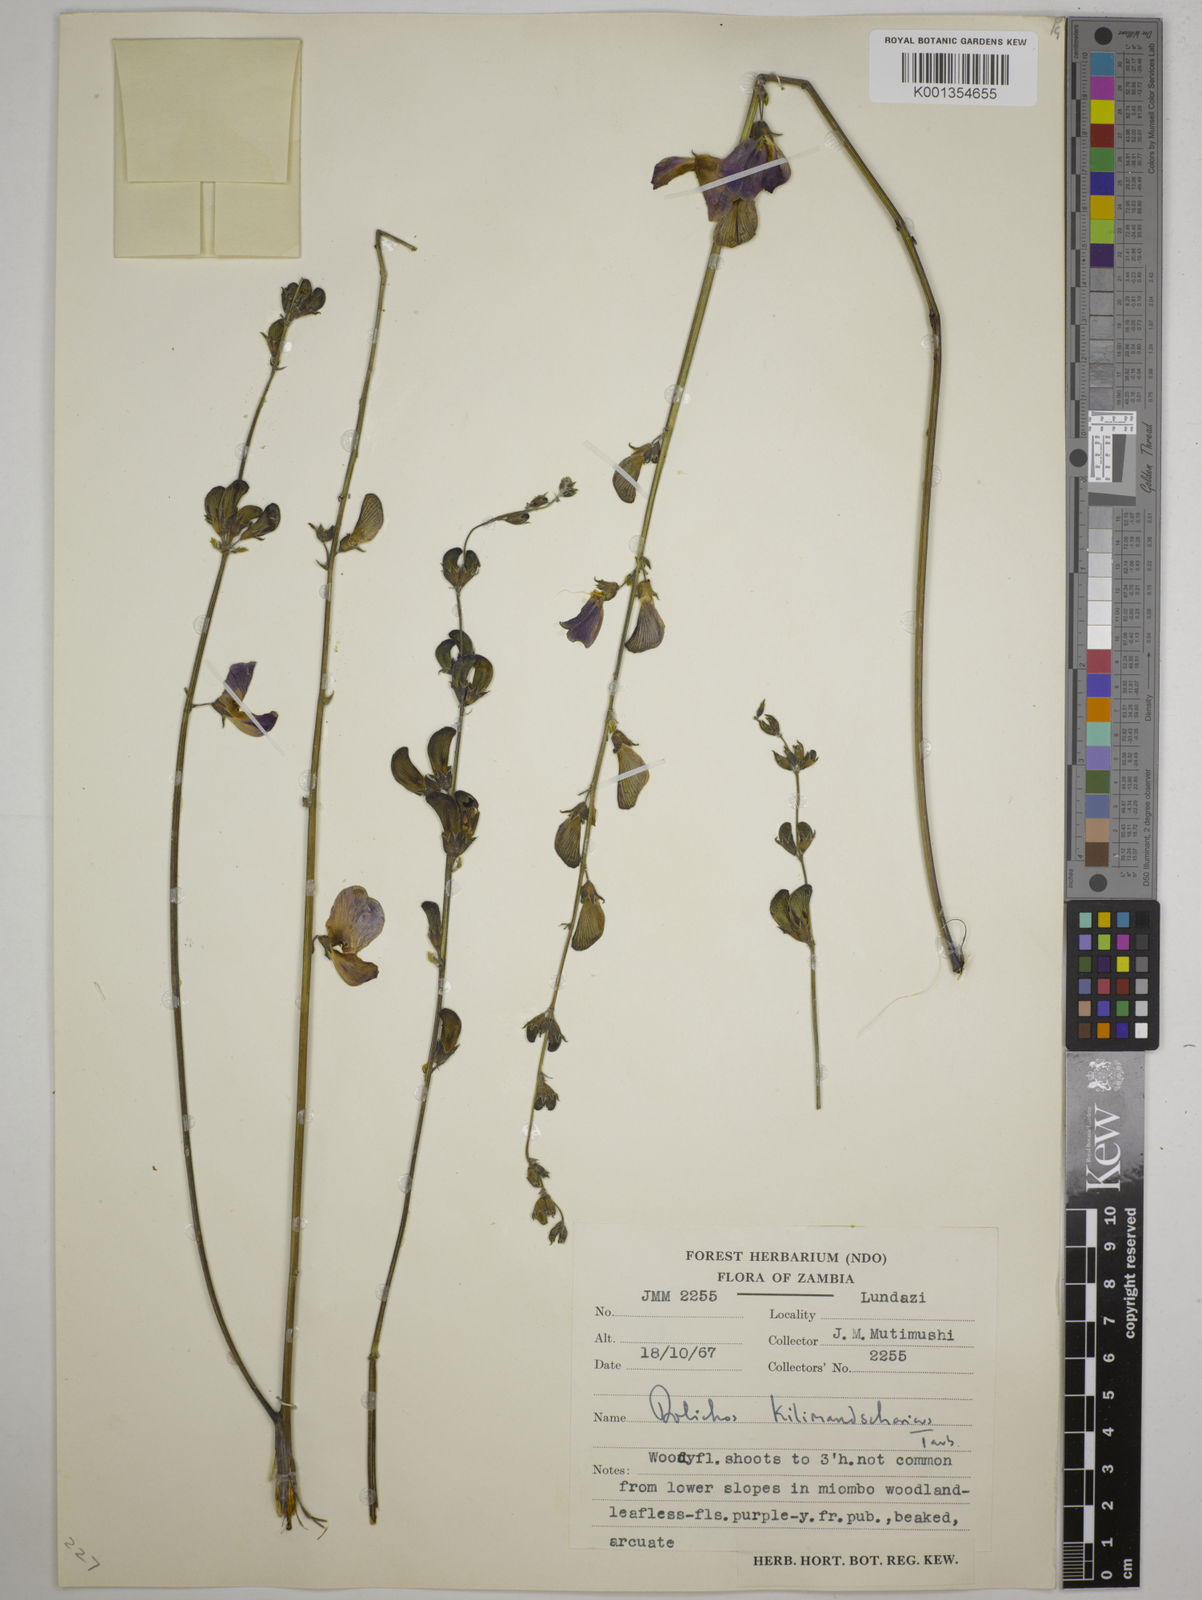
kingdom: Plantae
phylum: Tracheophyta
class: Magnoliopsida
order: Fabales
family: Fabaceae
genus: Dolichos
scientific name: Dolichos kilimandscharicus
